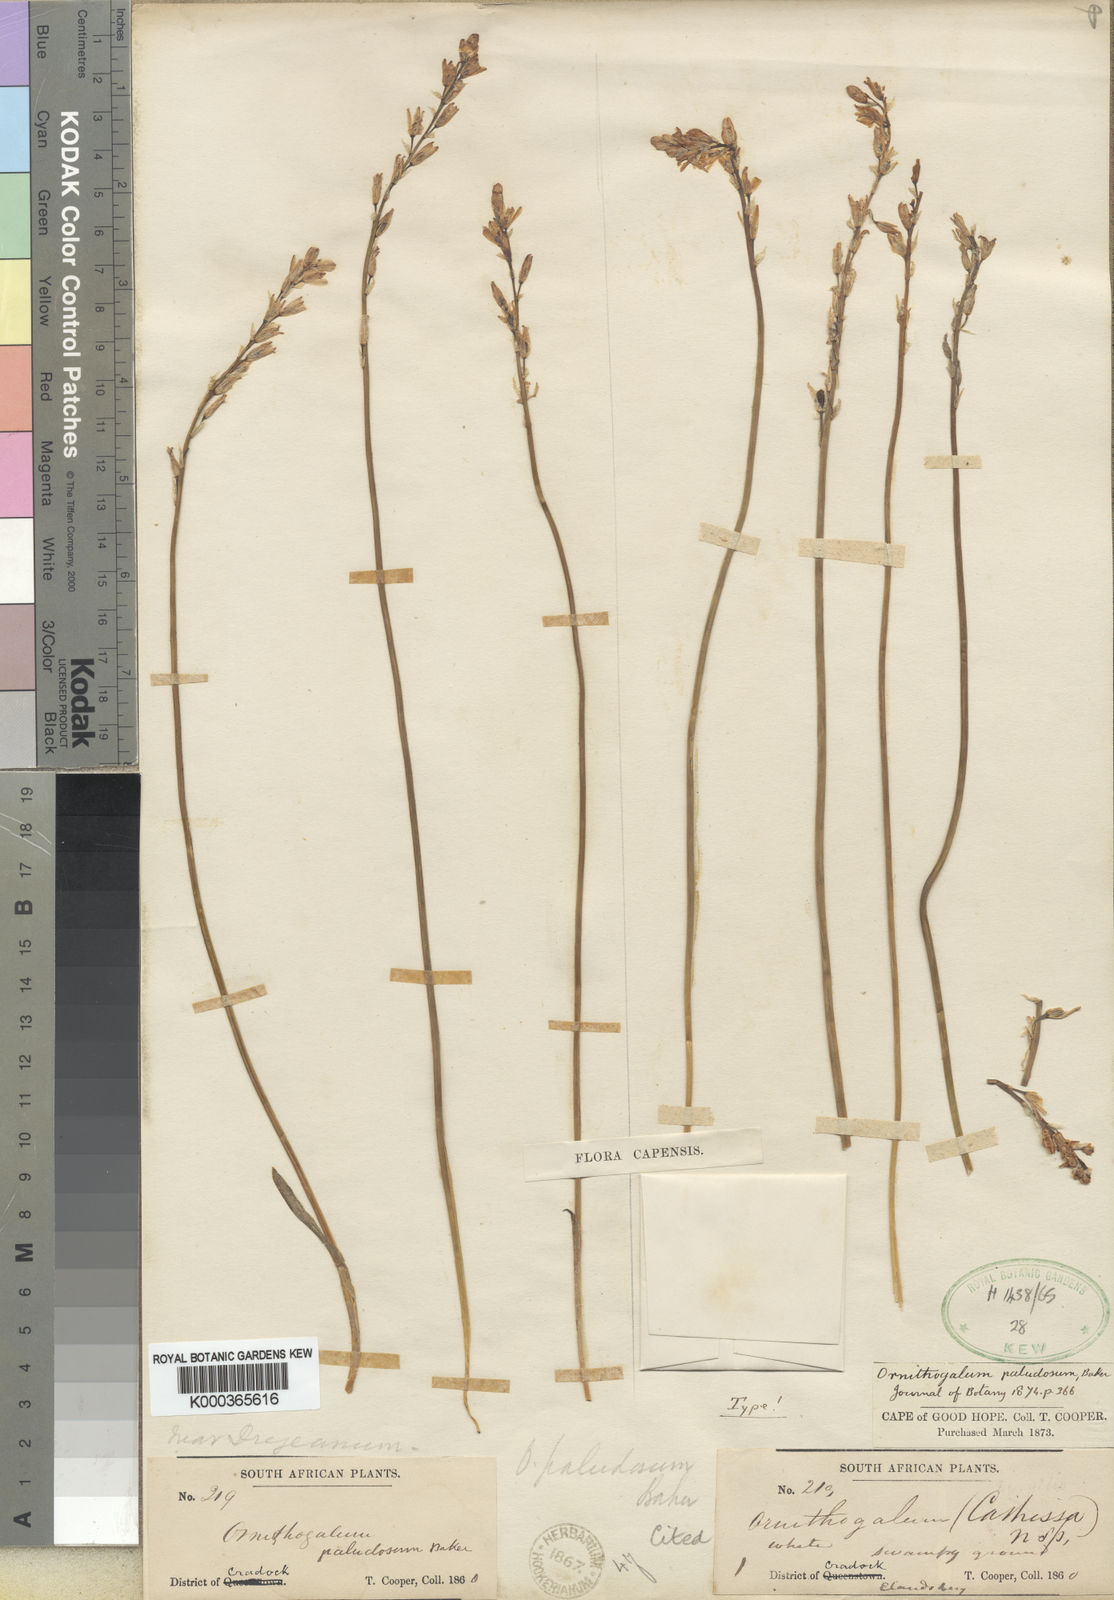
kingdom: Plantae
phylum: Tracheophyta
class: Liliopsida
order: Asparagales
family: Asparagaceae
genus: Ornithogalum
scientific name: Ornithogalum paludosum
